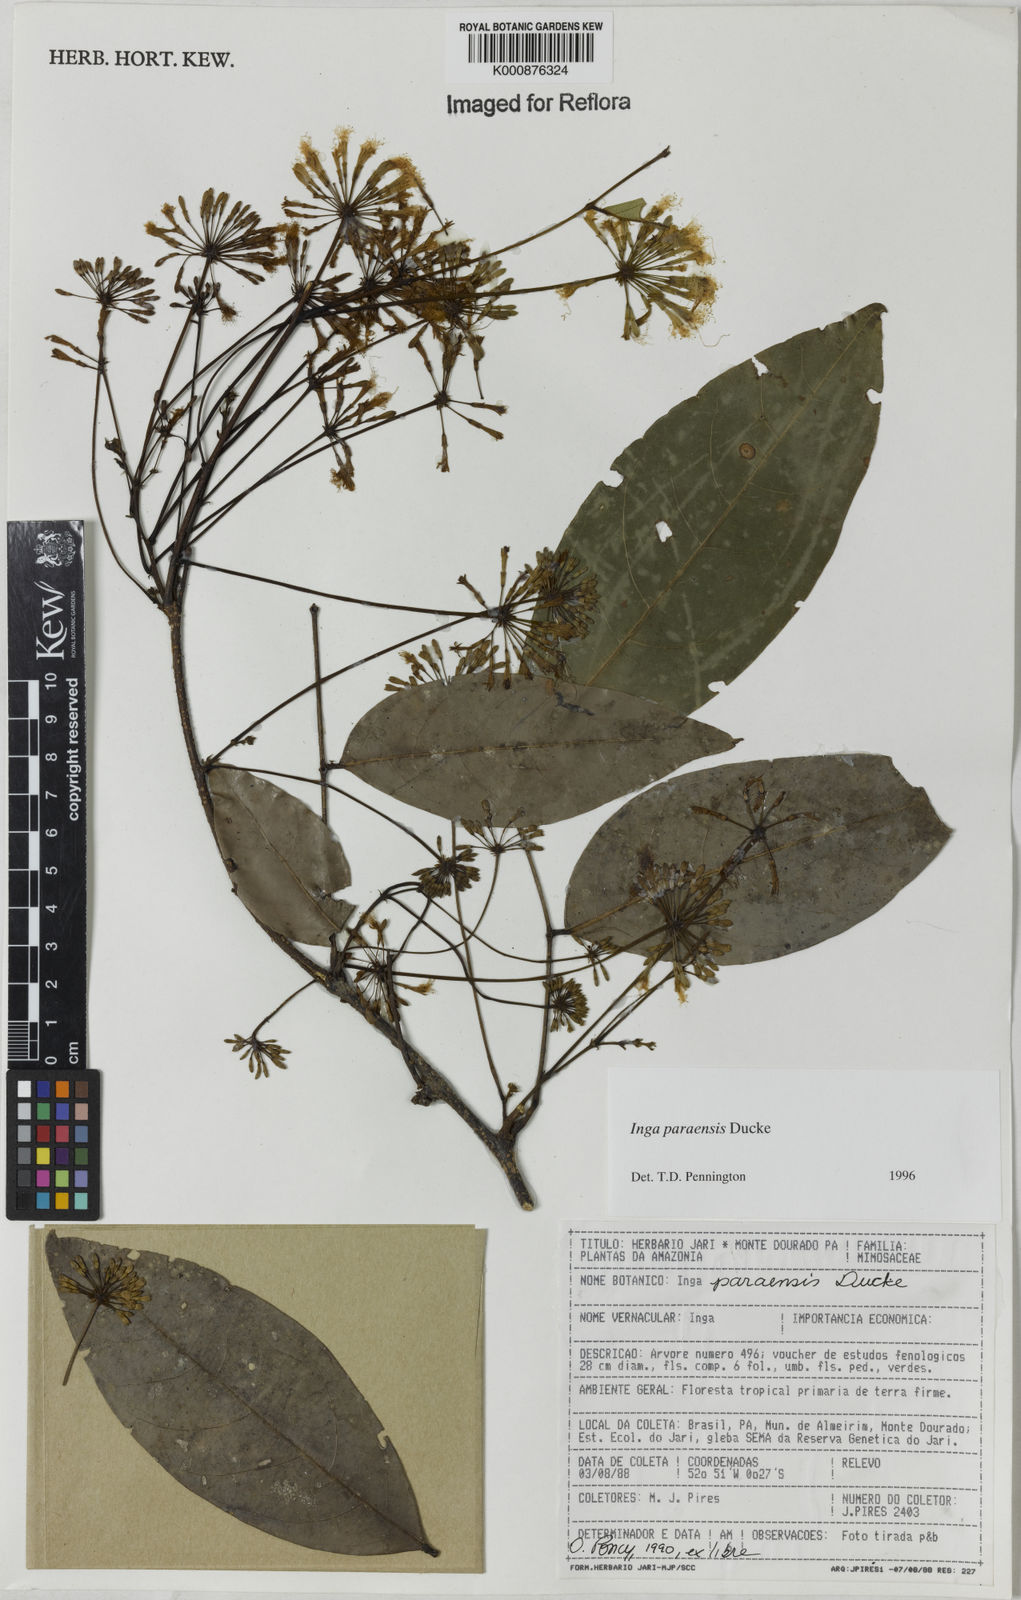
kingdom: Plantae
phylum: Tracheophyta
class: Magnoliopsida
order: Fabales
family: Fabaceae
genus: Inga
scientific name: Inga paraensis
